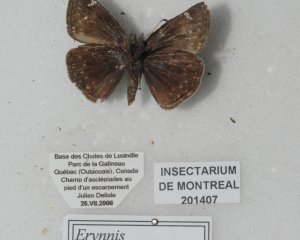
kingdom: Animalia
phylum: Arthropoda
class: Insecta
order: Lepidoptera
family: Hesperiidae
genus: Gesta
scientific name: Gesta
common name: Columbine Duskywing
